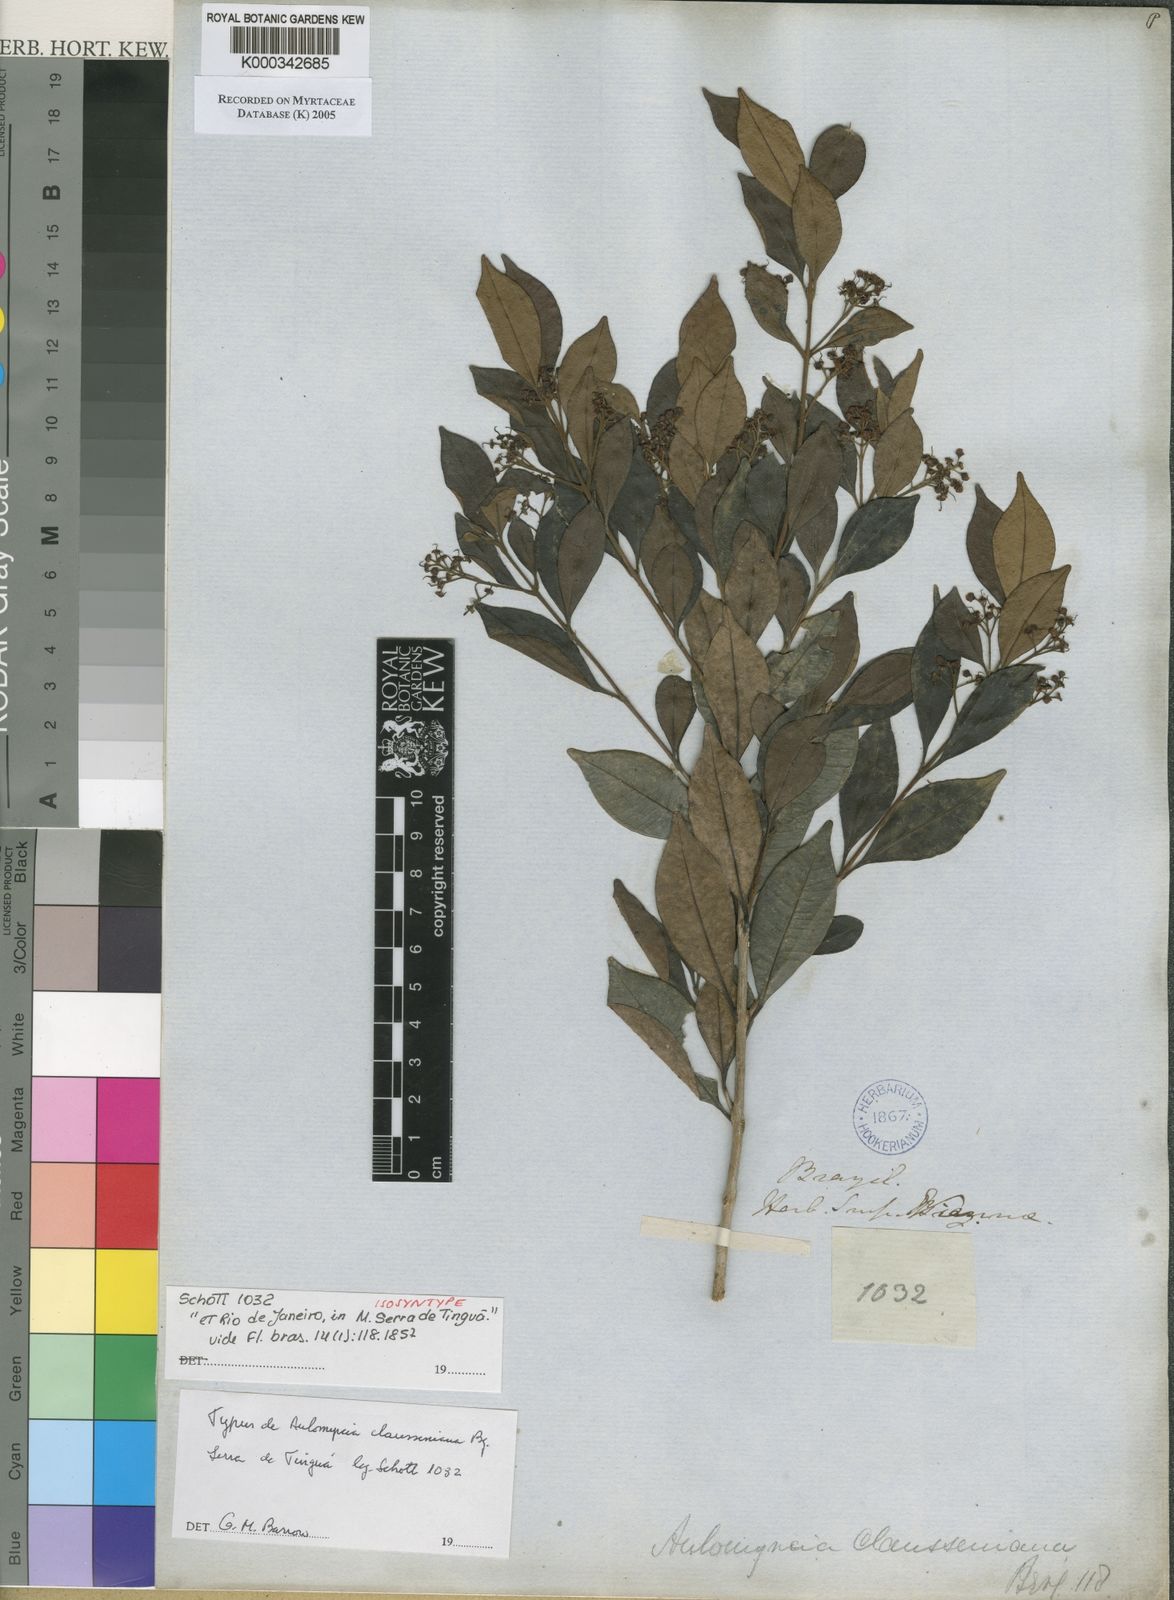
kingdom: Plantae
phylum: Tracheophyta
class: Magnoliopsida
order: Myrtales
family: Myrtaceae
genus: Myrcia
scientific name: Myrcia guianensis
